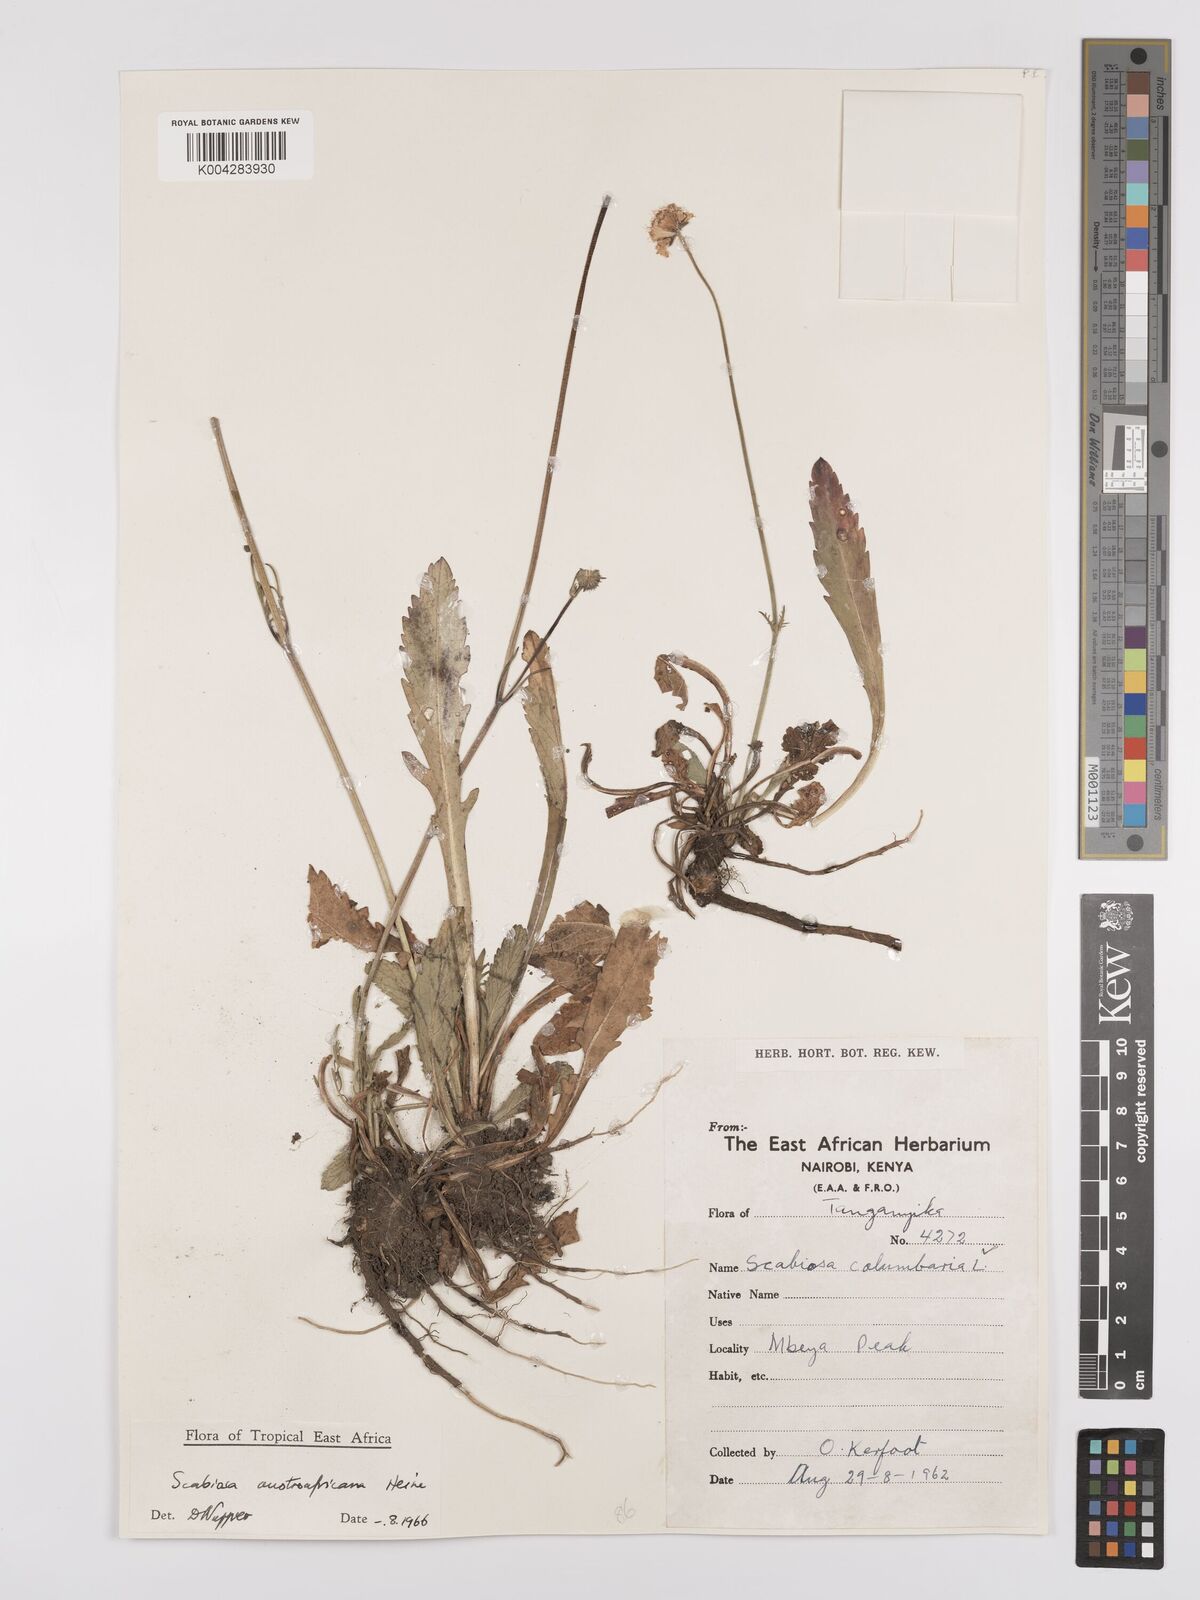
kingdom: Plantae
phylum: Tracheophyta
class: Magnoliopsida
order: Dipsacales
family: Caprifoliaceae
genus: Scabiosa
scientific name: Scabiosa austroafricana
